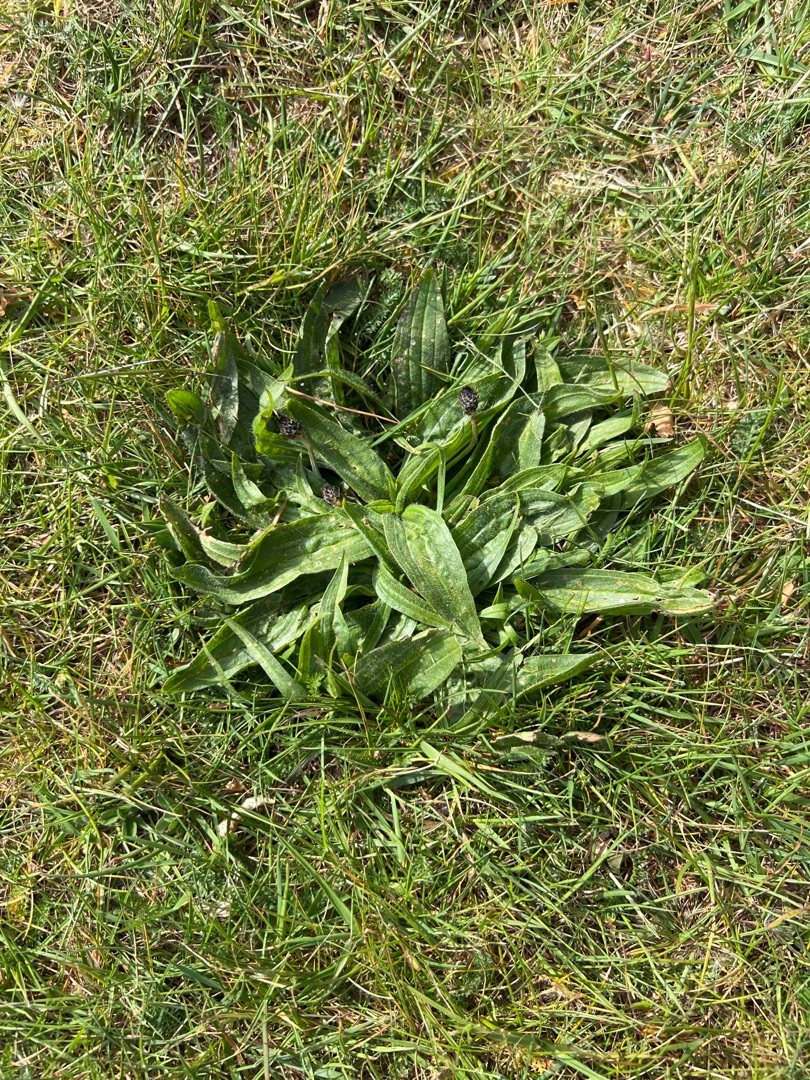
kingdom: Plantae
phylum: Tracheophyta
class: Magnoliopsida
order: Lamiales
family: Plantaginaceae
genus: Plantago
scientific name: Plantago lanceolata
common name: Lancet-vejbred
